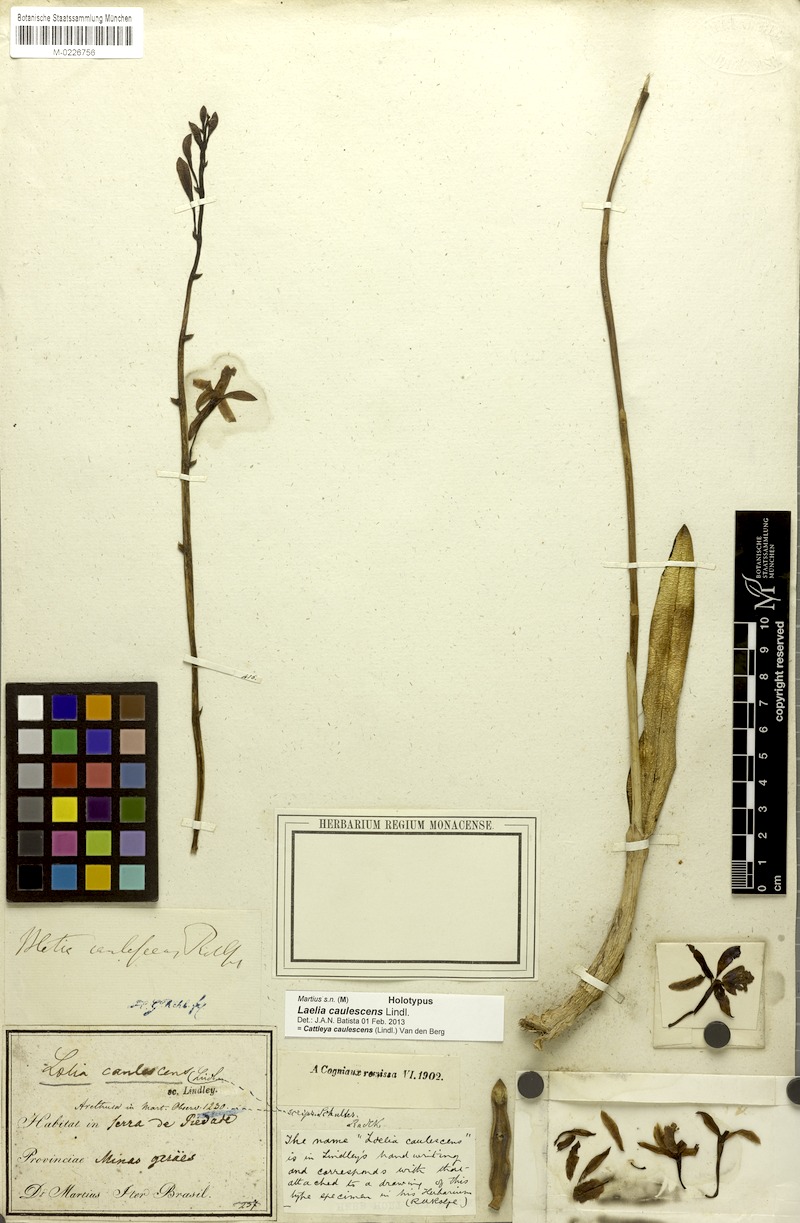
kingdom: Plantae
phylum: Tracheophyta
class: Liliopsida
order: Asparagales
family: Orchidaceae
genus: Cattleya
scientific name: Cattleya caulescens
